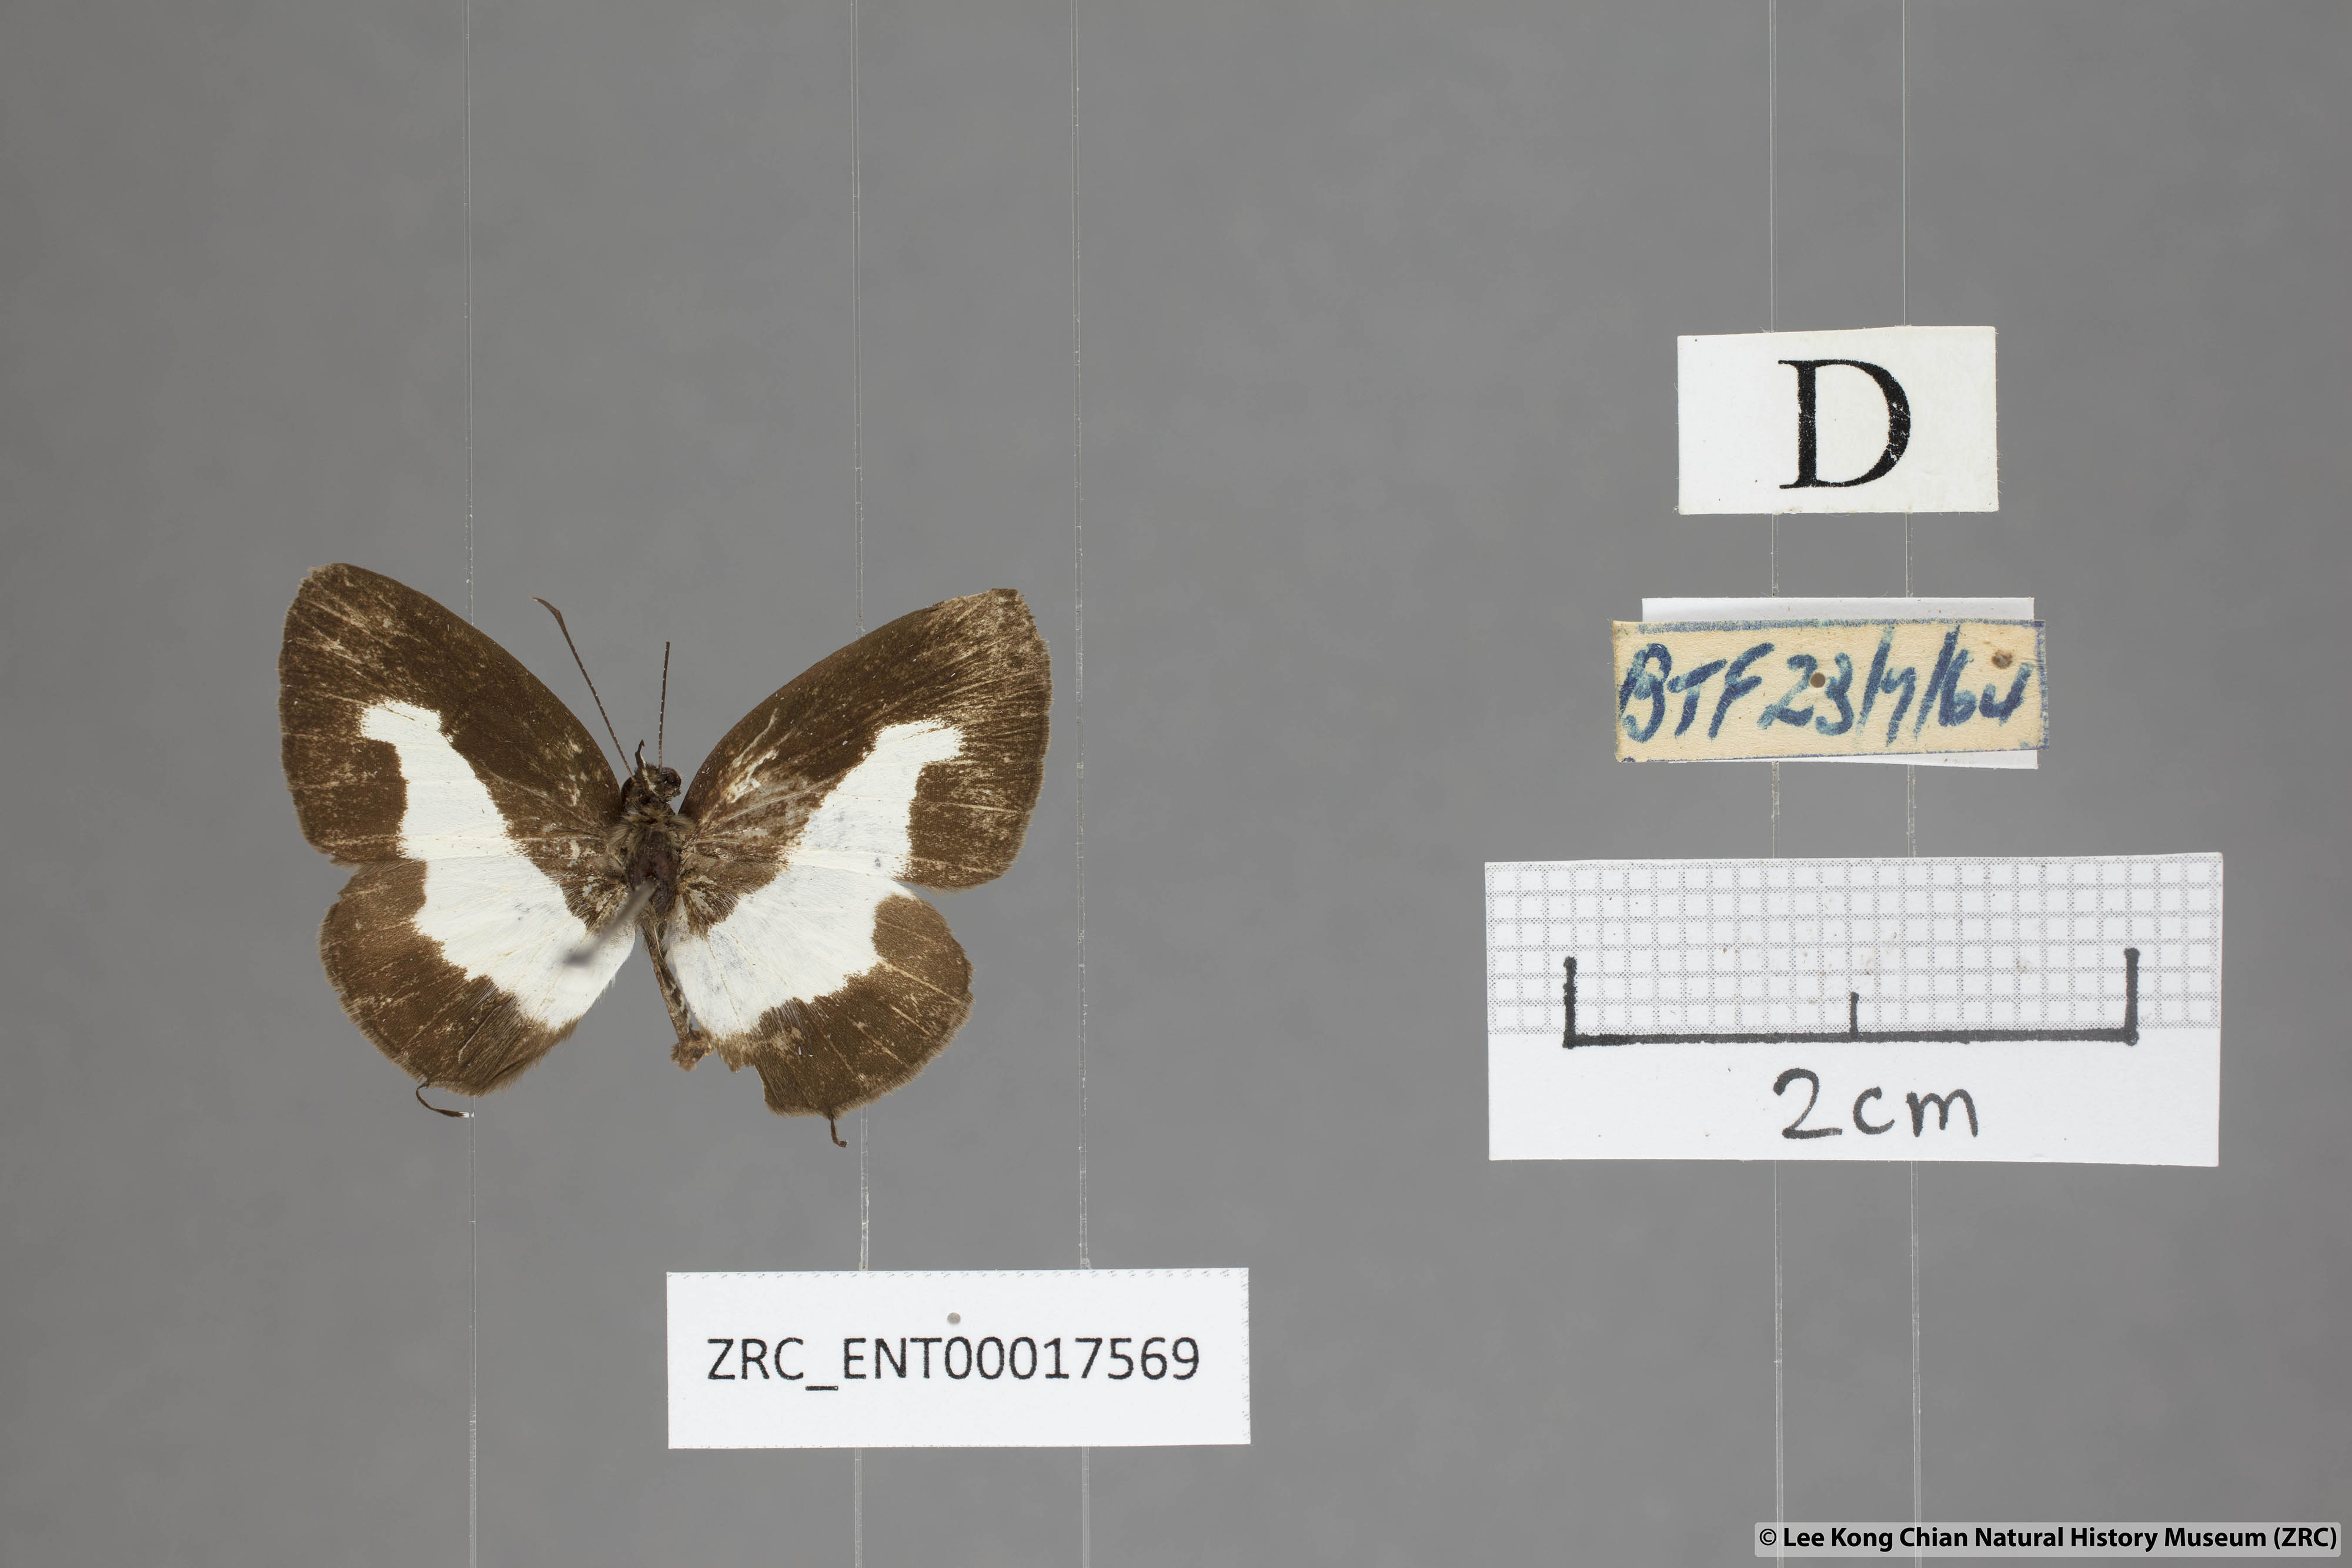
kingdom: Animalia
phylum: Arthropoda
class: Insecta
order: Lepidoptera
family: Lycaenidae
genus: Caleta
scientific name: Caleta elna
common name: Elbowed pierrot
